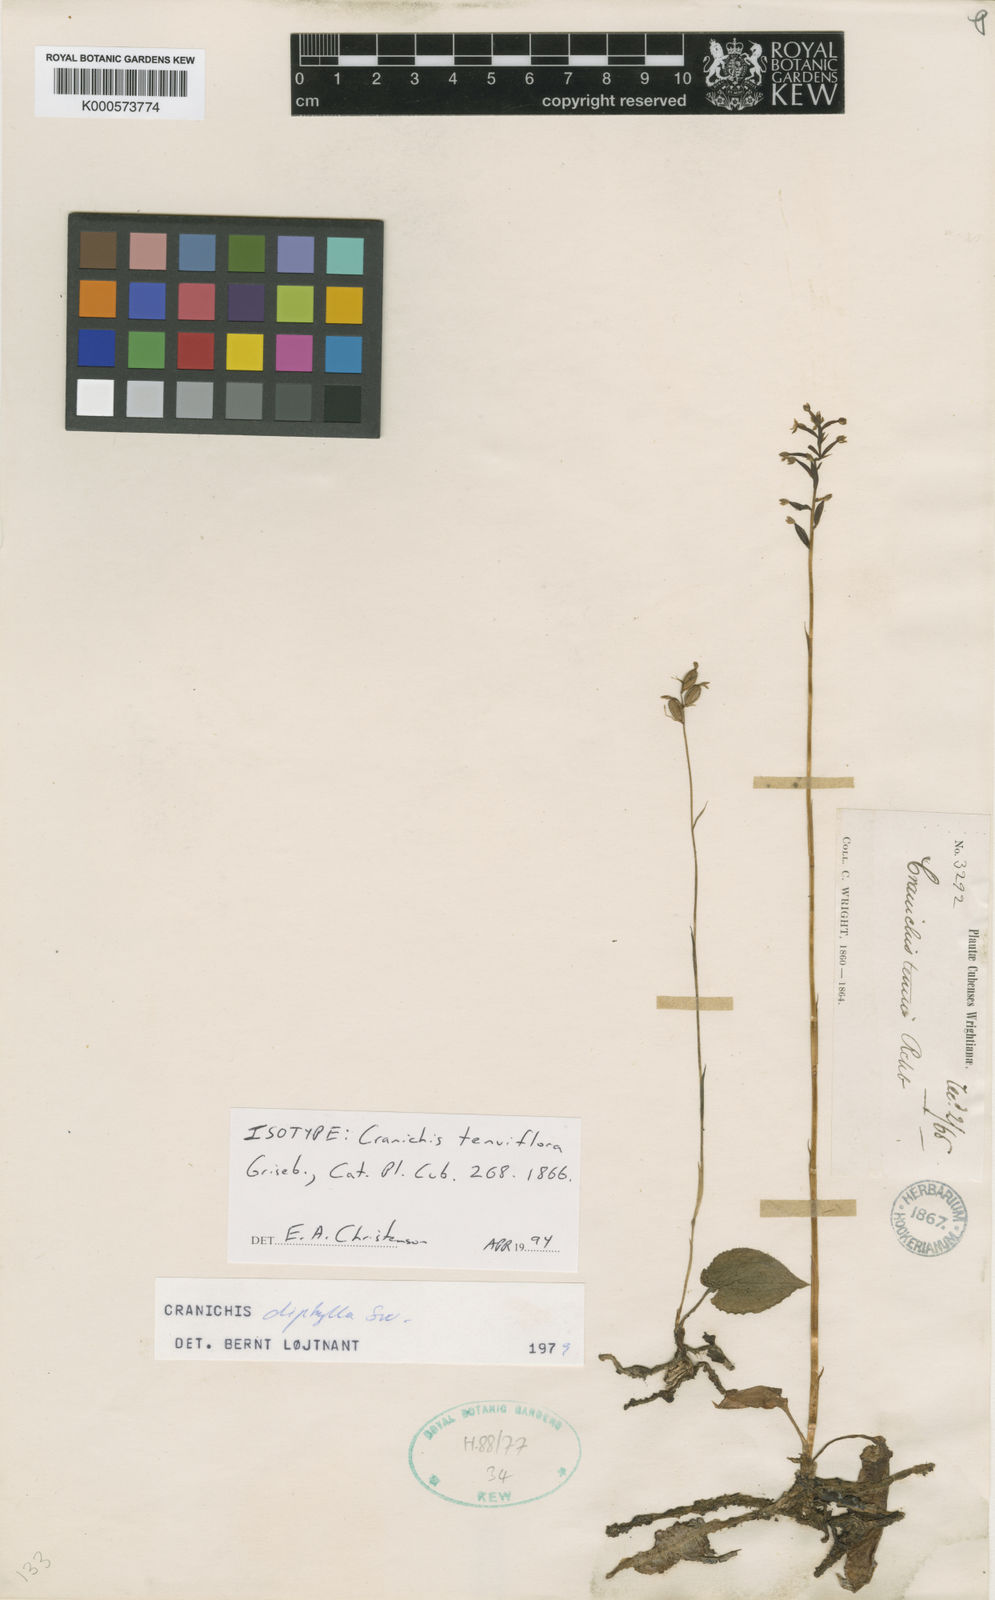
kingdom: Plantae
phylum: Tracheophyta
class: Liliopsida
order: Asparagales
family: Orchidaceae
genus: Cranichis
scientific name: Cranichis tenuiflora
